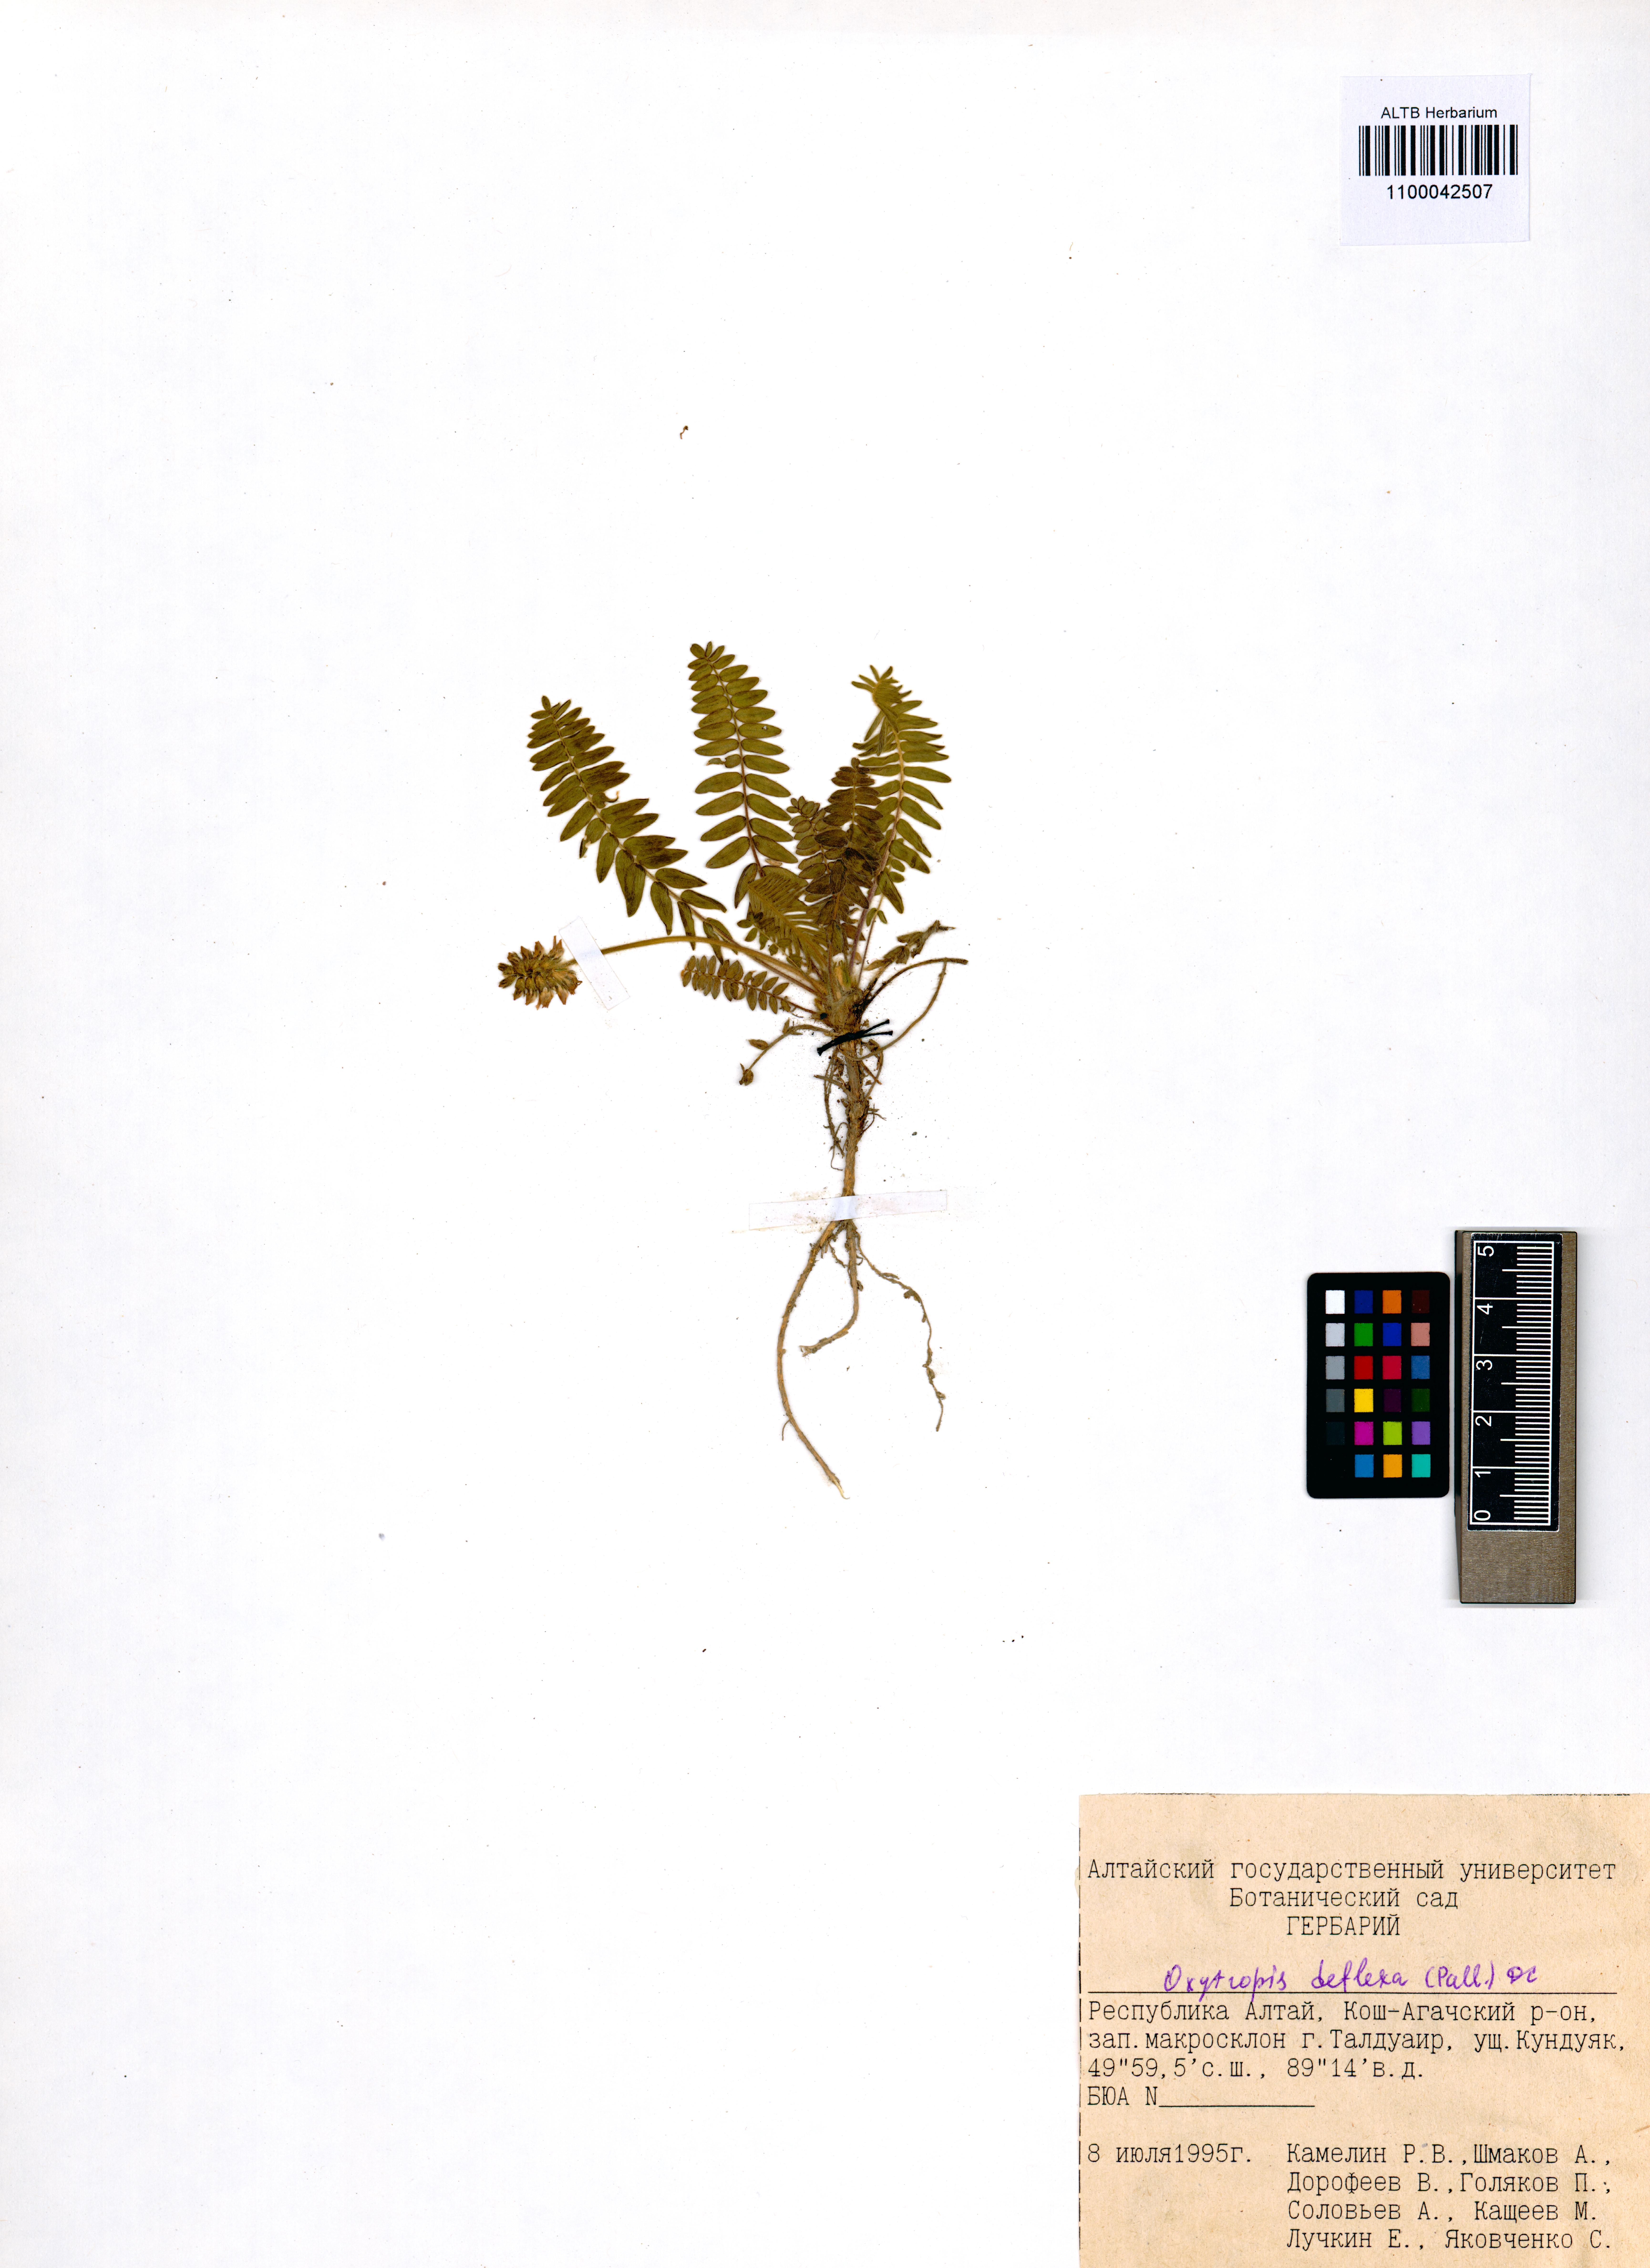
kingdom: Plantae
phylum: Tracheophyta
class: Magnoliopsida
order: Fabales
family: Fabaceae
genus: Oxytropis
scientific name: Oxytropis deflexa
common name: Stemmed oxytrope
